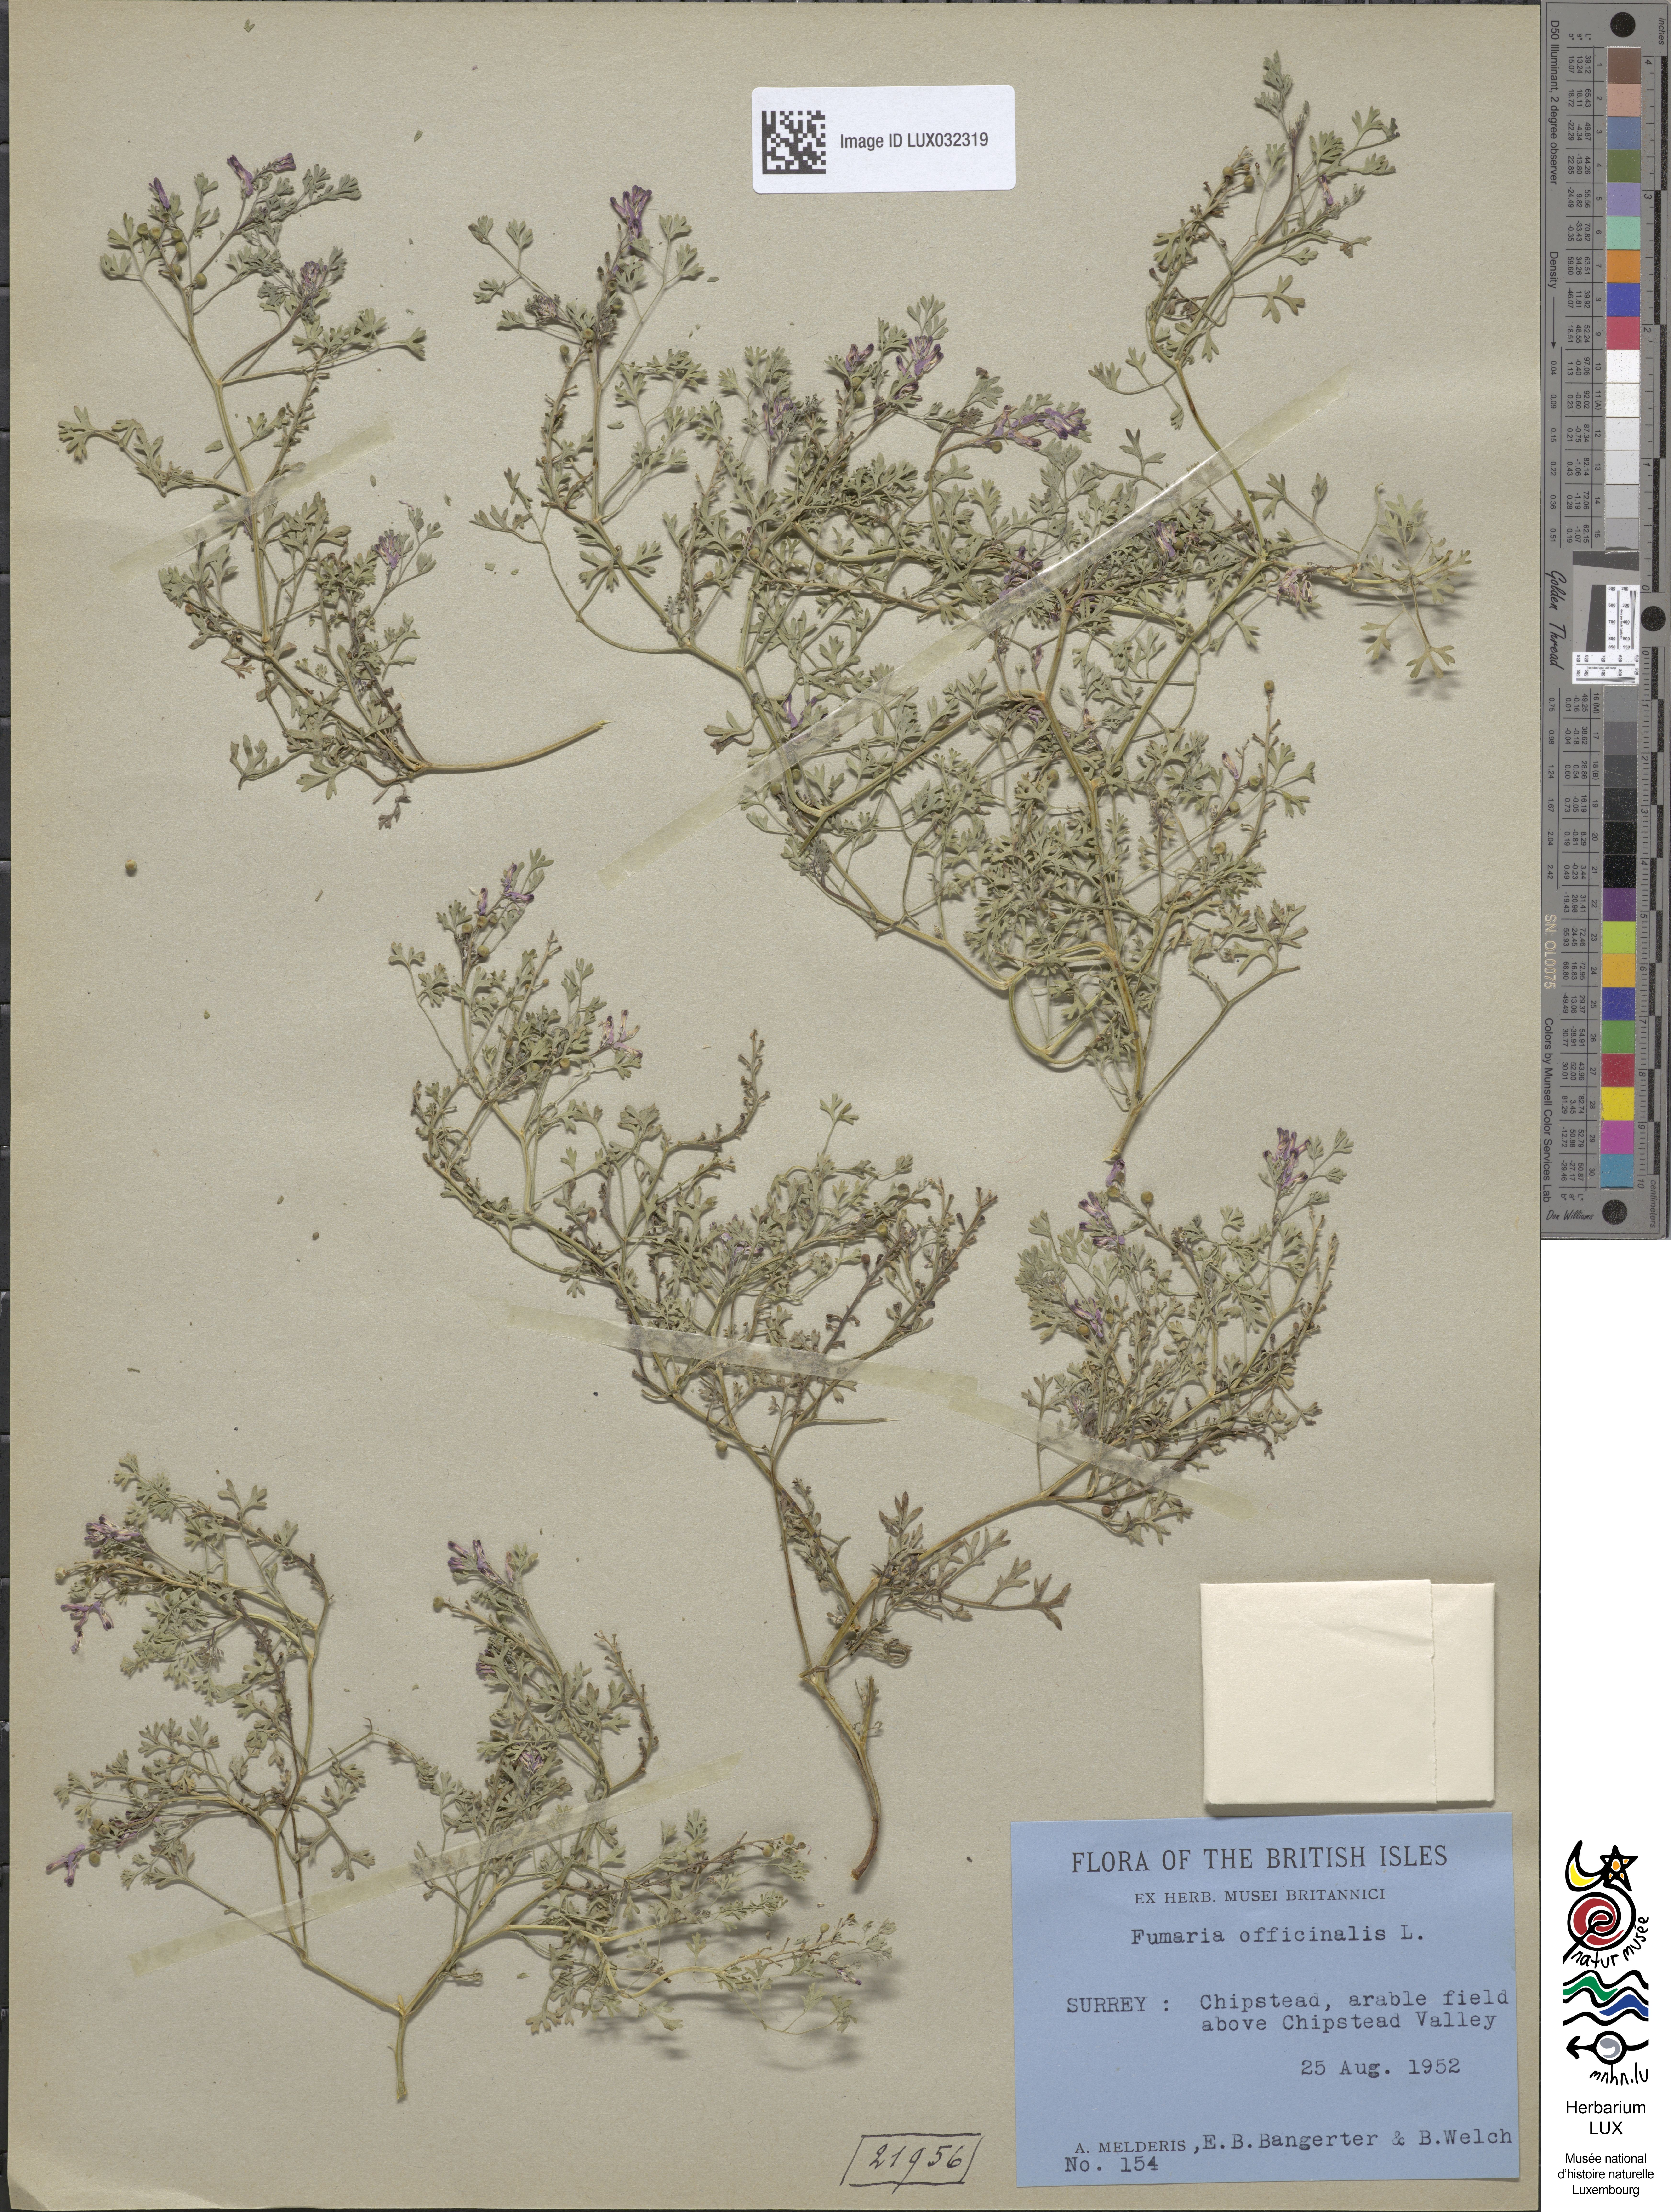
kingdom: Plantae
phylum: Tracheophyta
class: Magnoliopsida
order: Ranunculales
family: Papaveraceae
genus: Fumaria
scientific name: Fumaria officinalis
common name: Common fumitory
